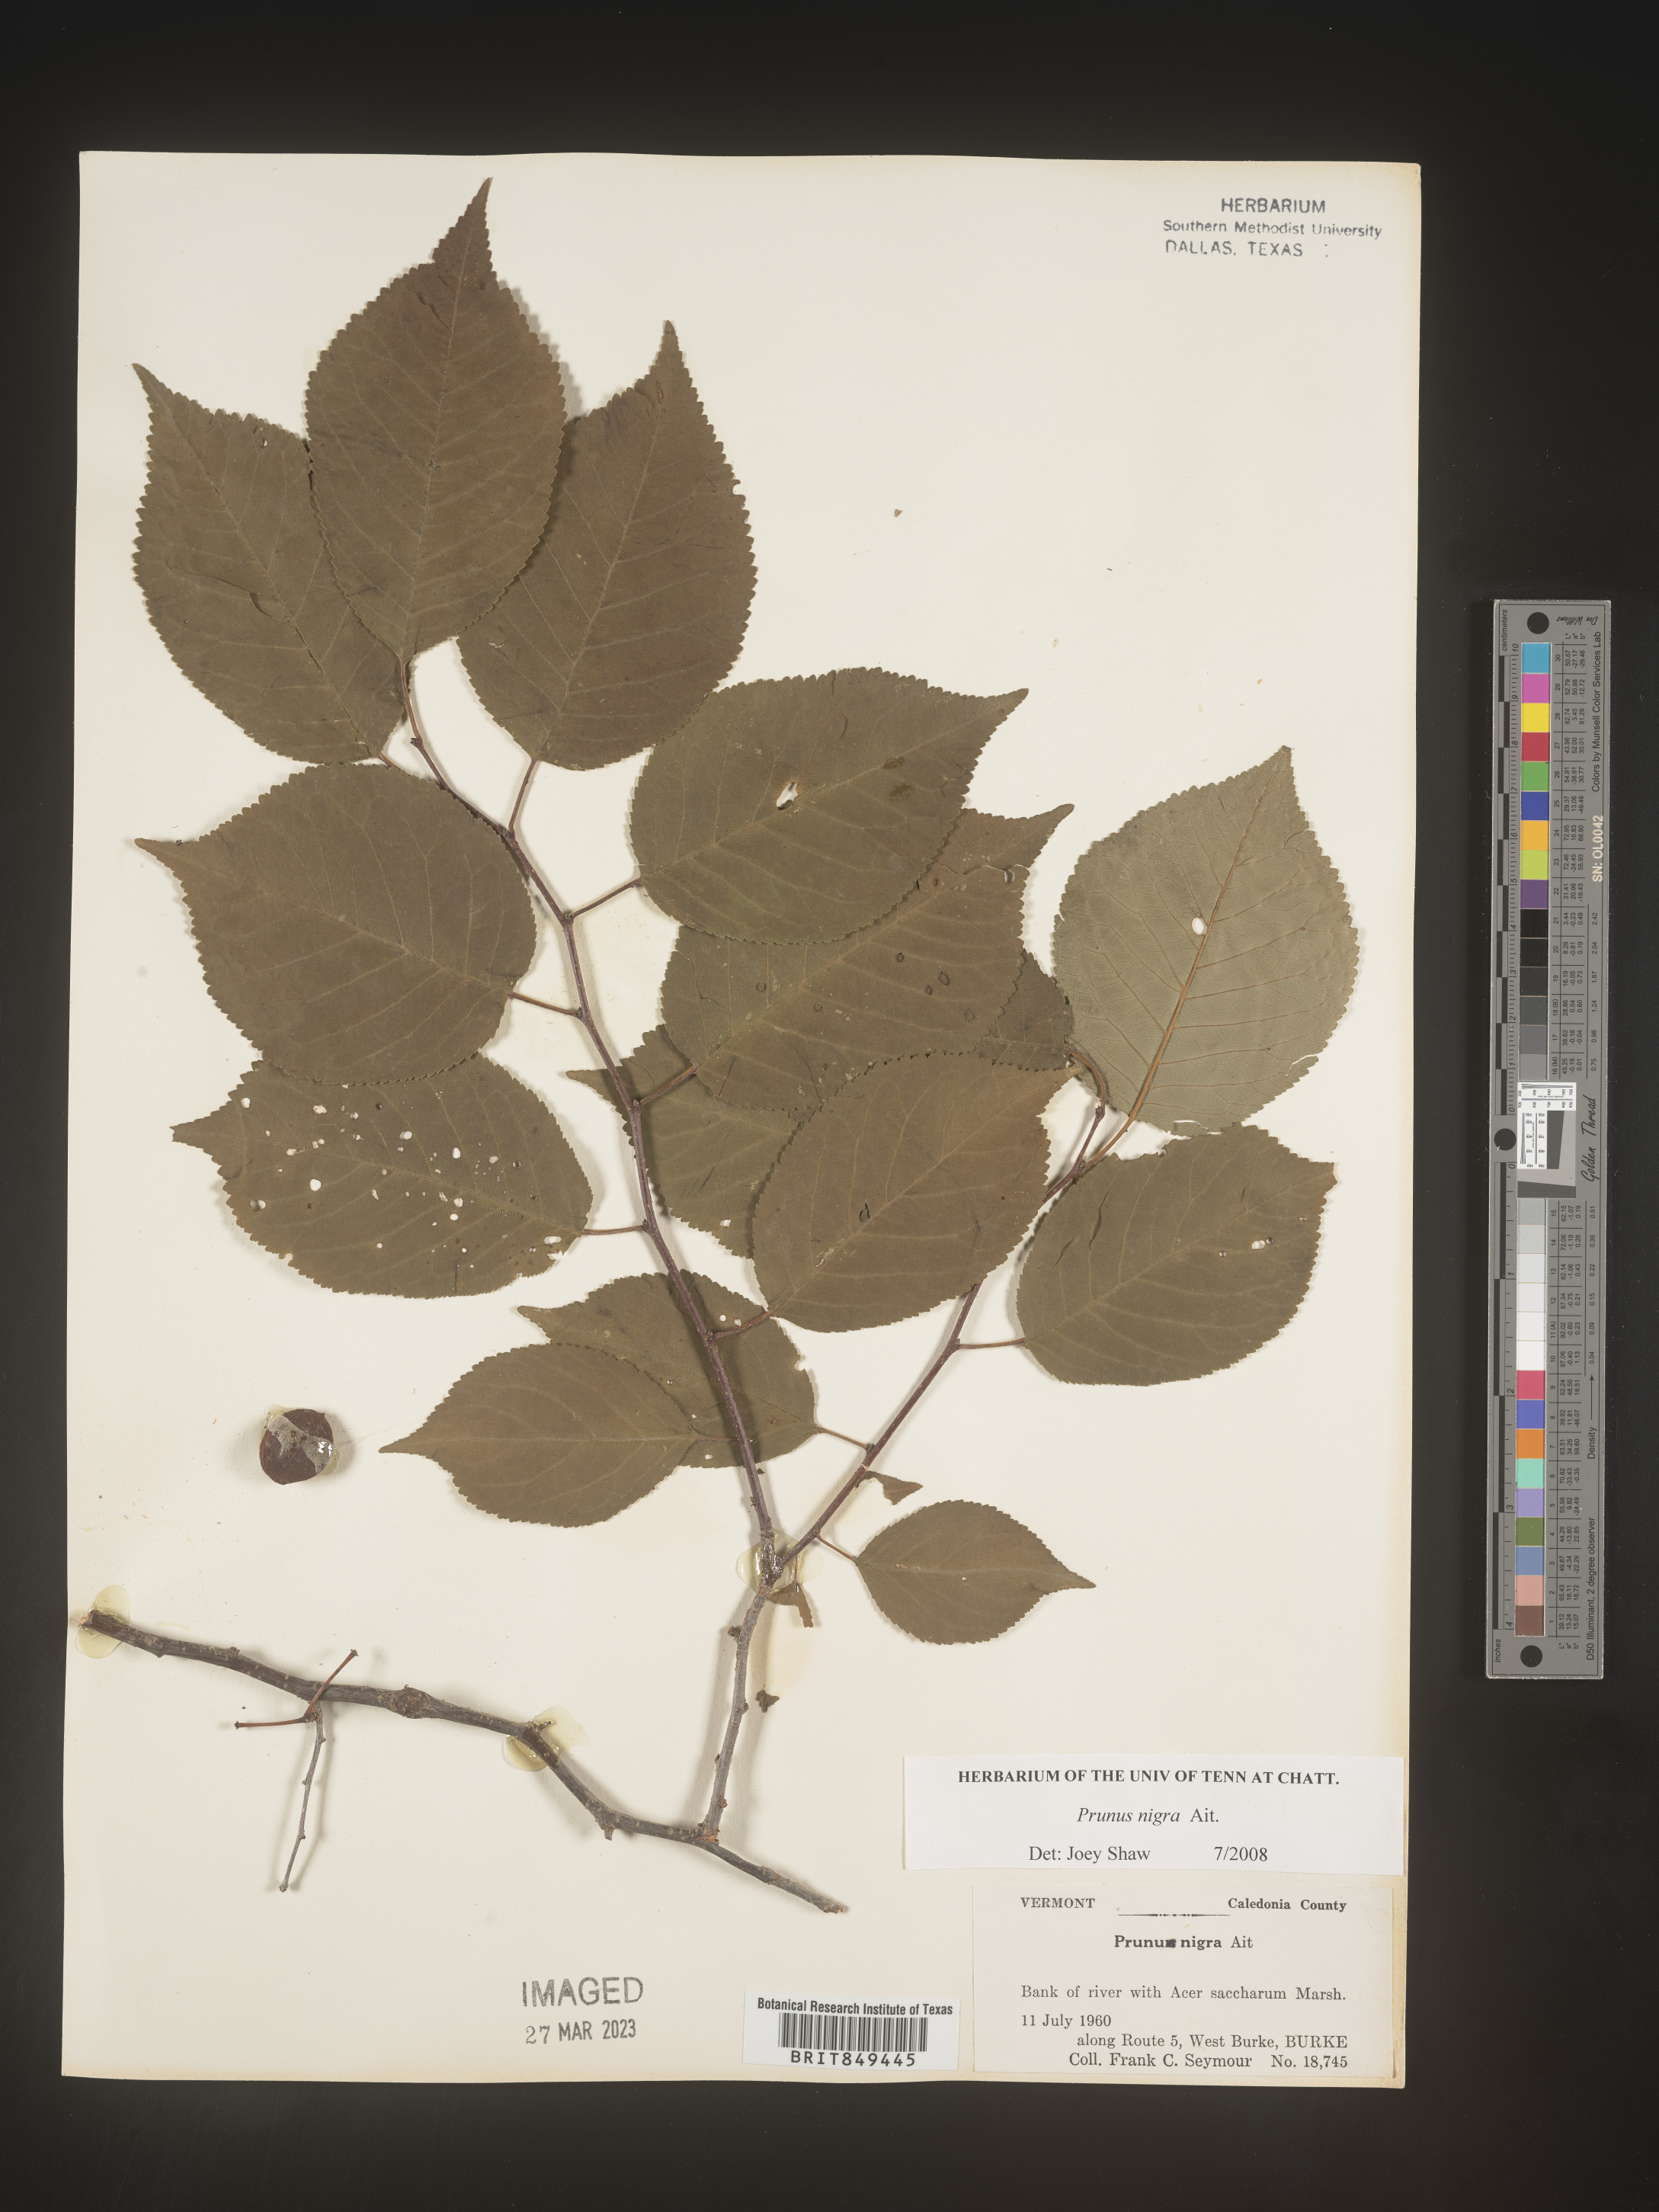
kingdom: Plantae
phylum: Tracheophyta
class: Magnoliopsida
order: Rosales
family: Rosaceae
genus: Prunus
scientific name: Prunus
